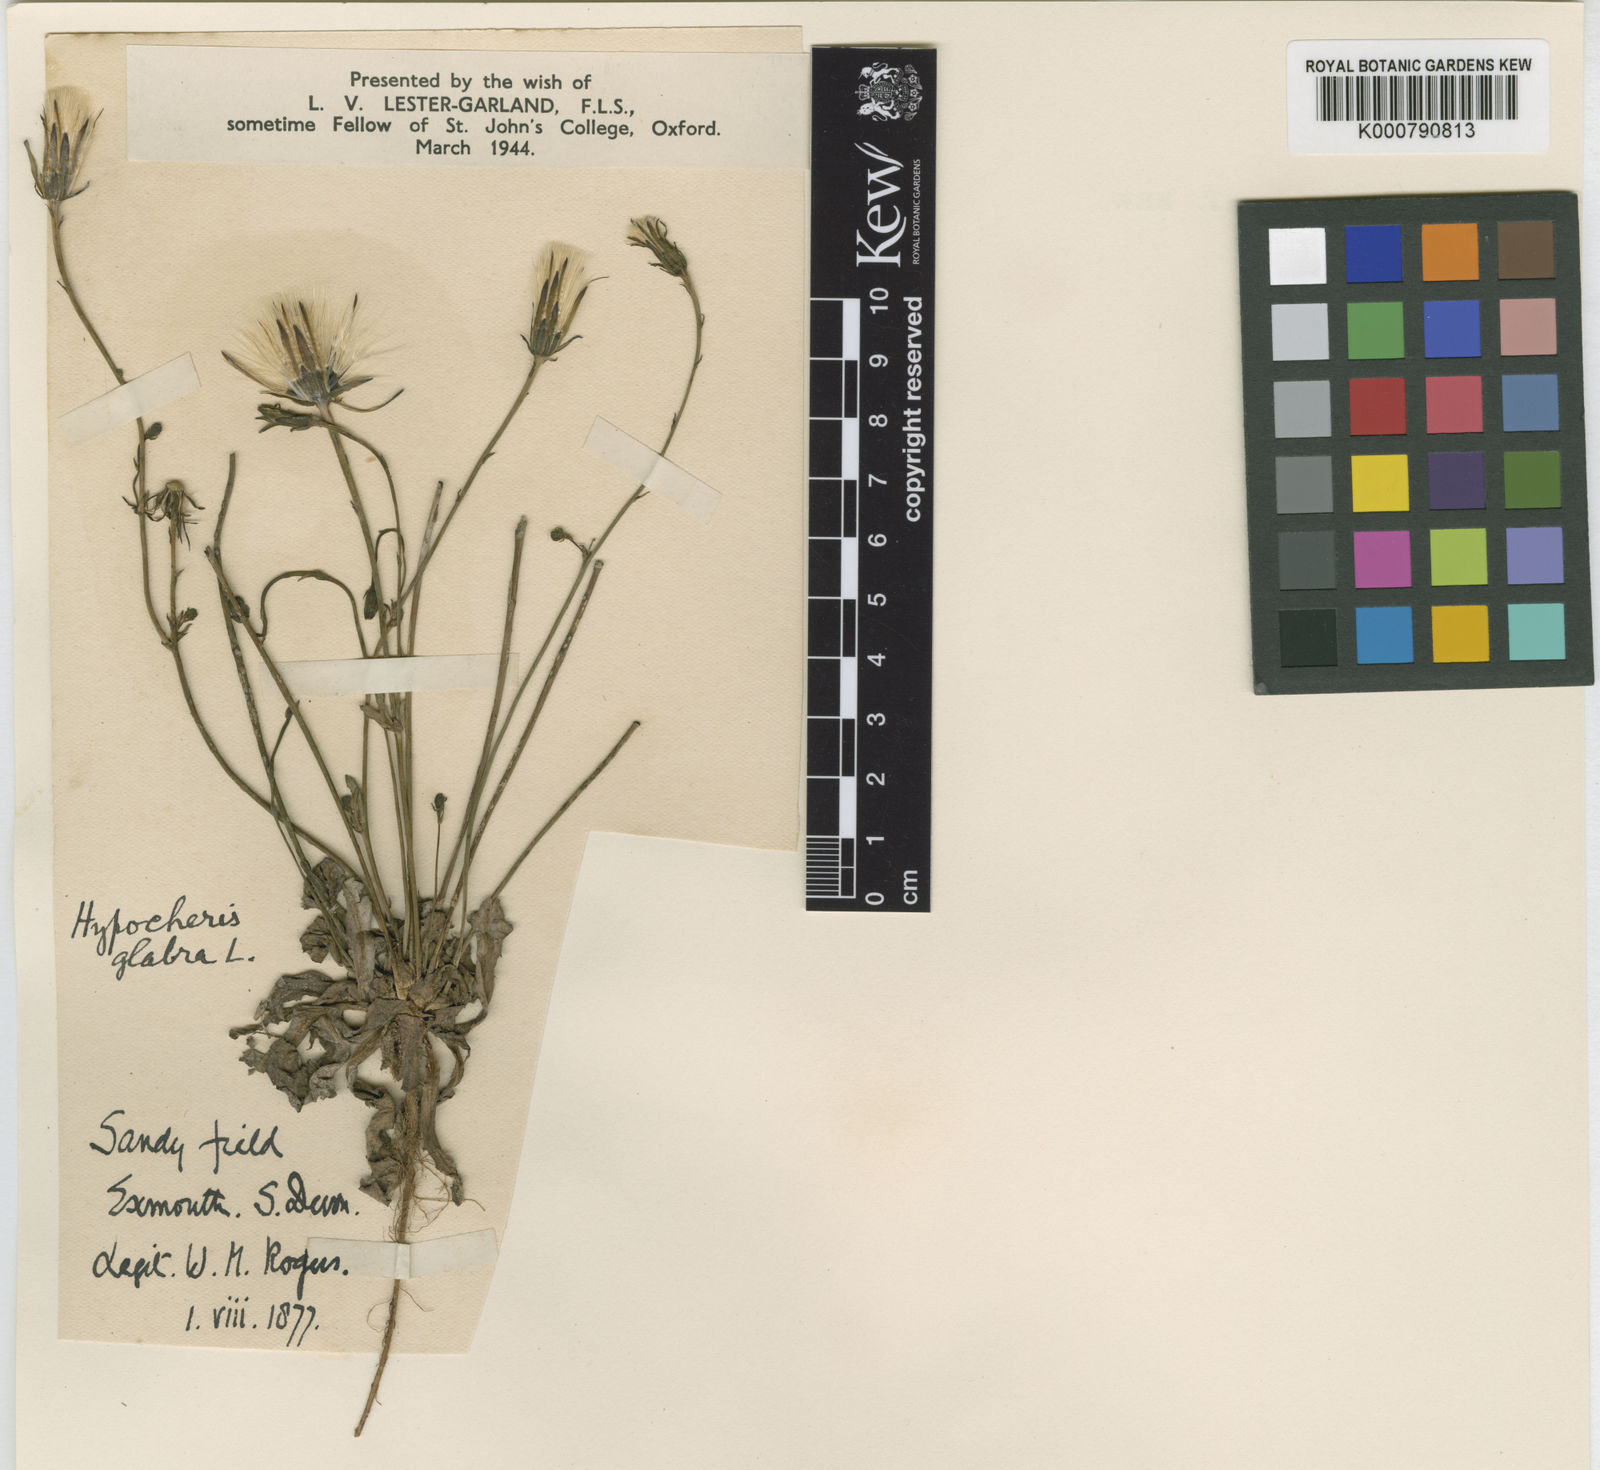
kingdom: Plantae
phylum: Tracheophyta
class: Magnoliopsida
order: Asterales
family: Asteraceae
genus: Hypochaeris
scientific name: Hypochaeris glabra
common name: Smooth catsear
